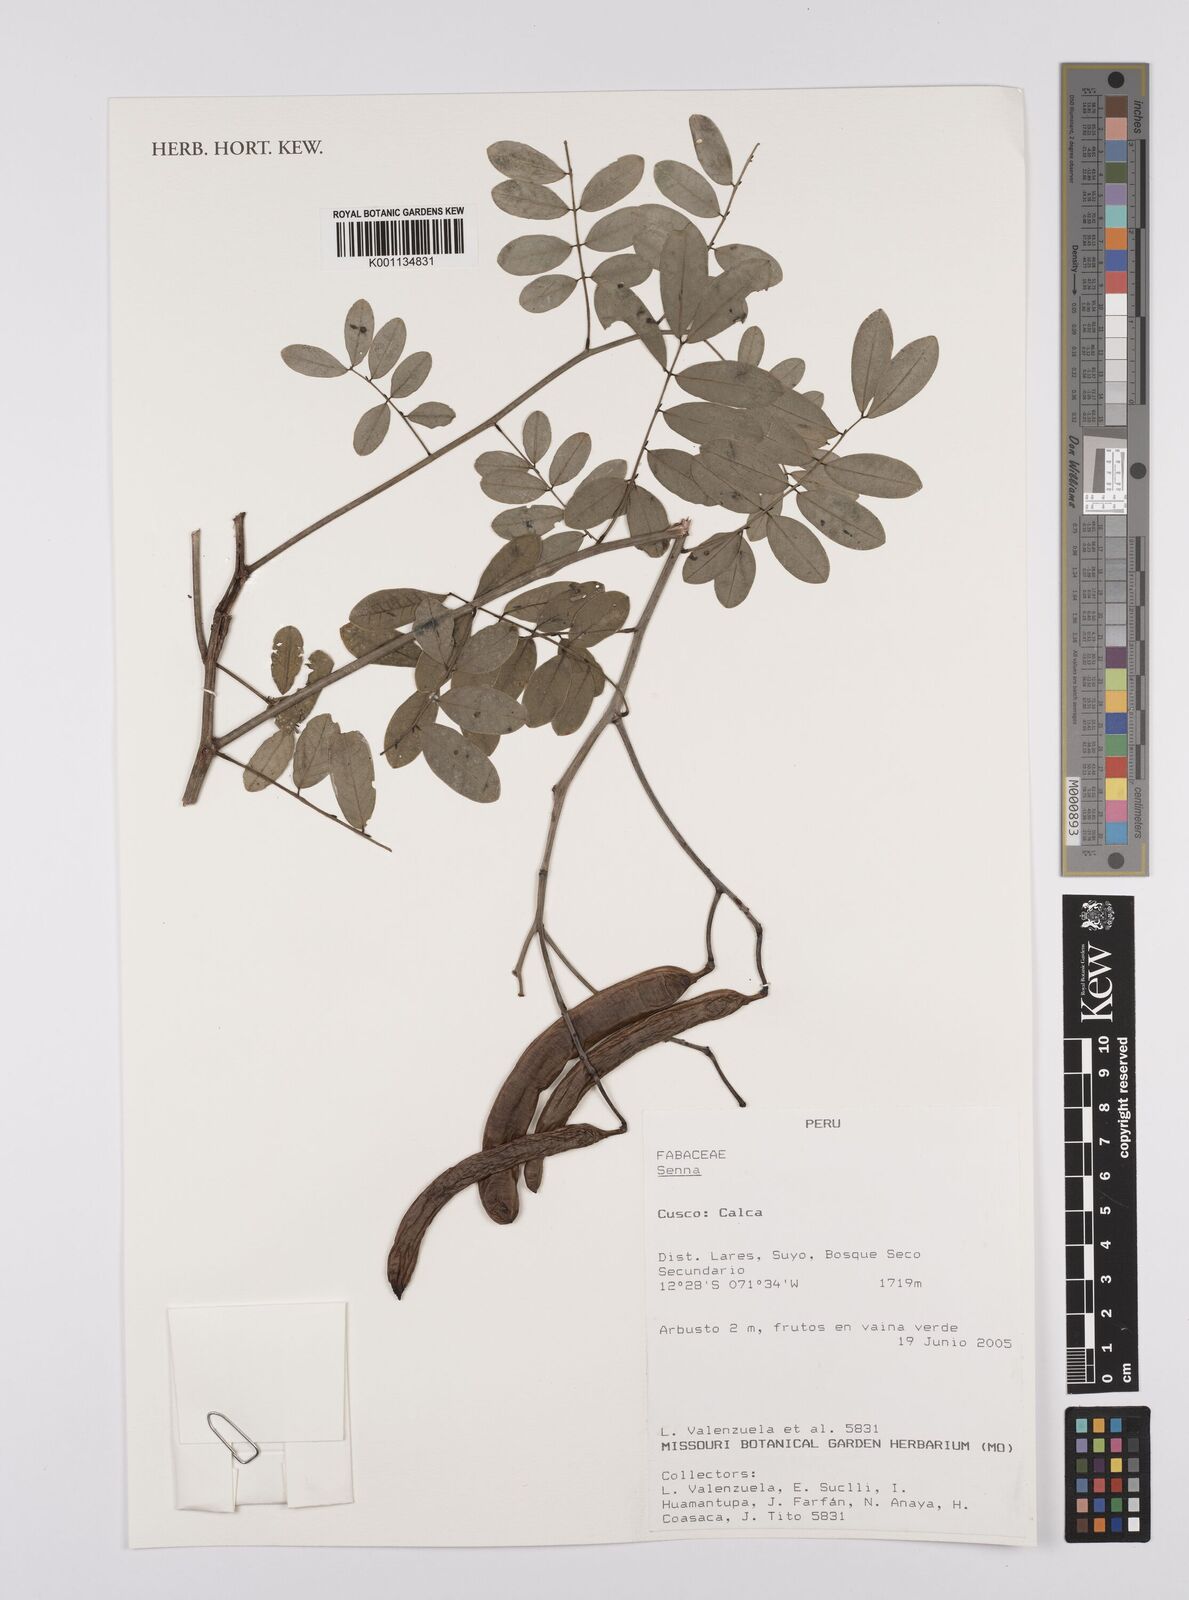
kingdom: Plantae
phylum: Tracheophyta
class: Magnoliopsida
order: Fabales
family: Fabaceae
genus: Senna
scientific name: Senna
